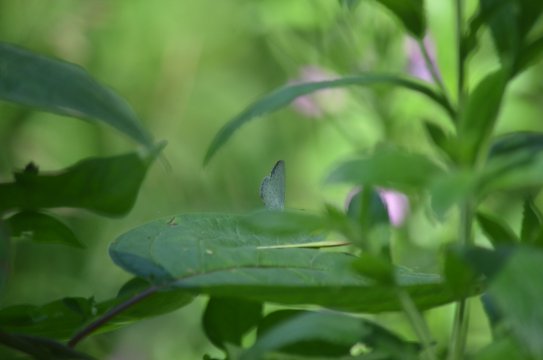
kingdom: Animalia
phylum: Arthropoda
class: Insecta
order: Lepidoptera
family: Lycaenidae
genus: Celastrina
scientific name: Celastrina ladon
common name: Spring Azure
